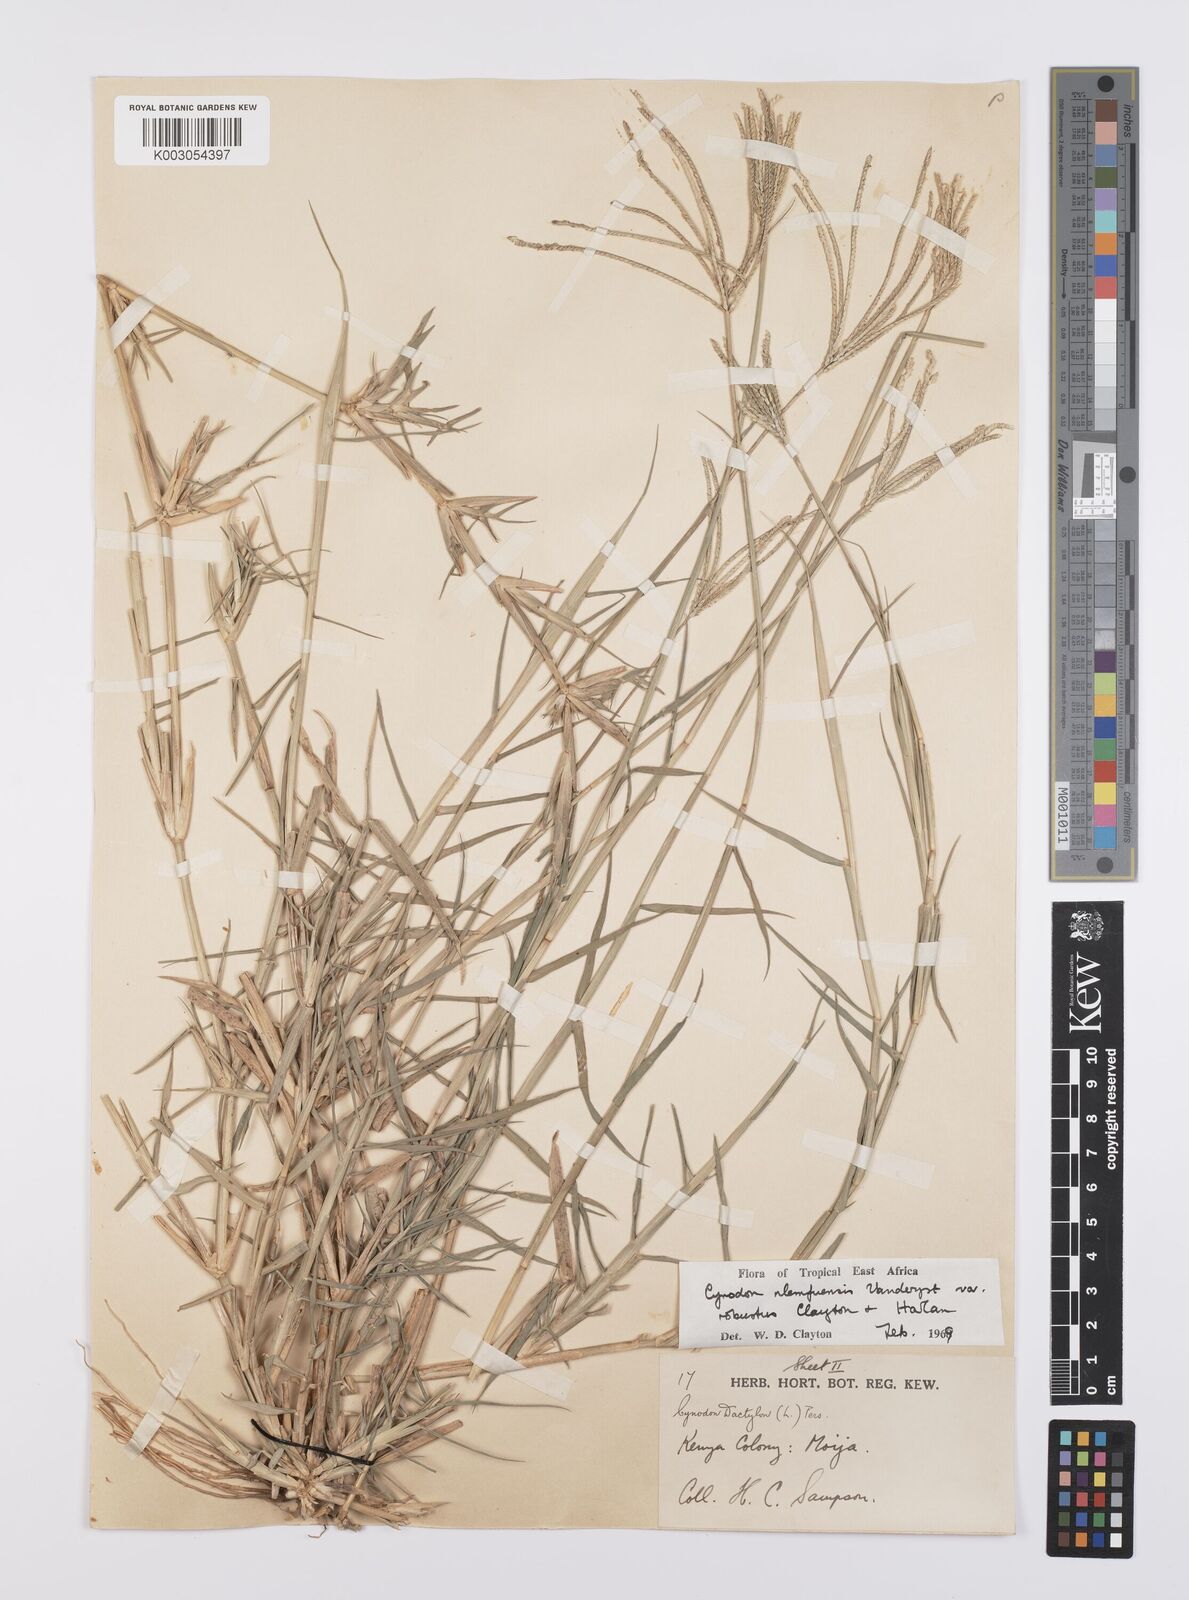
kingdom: Plantae
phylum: Tracheophyta
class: Liliopsida
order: Poales
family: Poaceae
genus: Cynodon
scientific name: Cynodon nlemfuensis
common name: African bermudagrass
